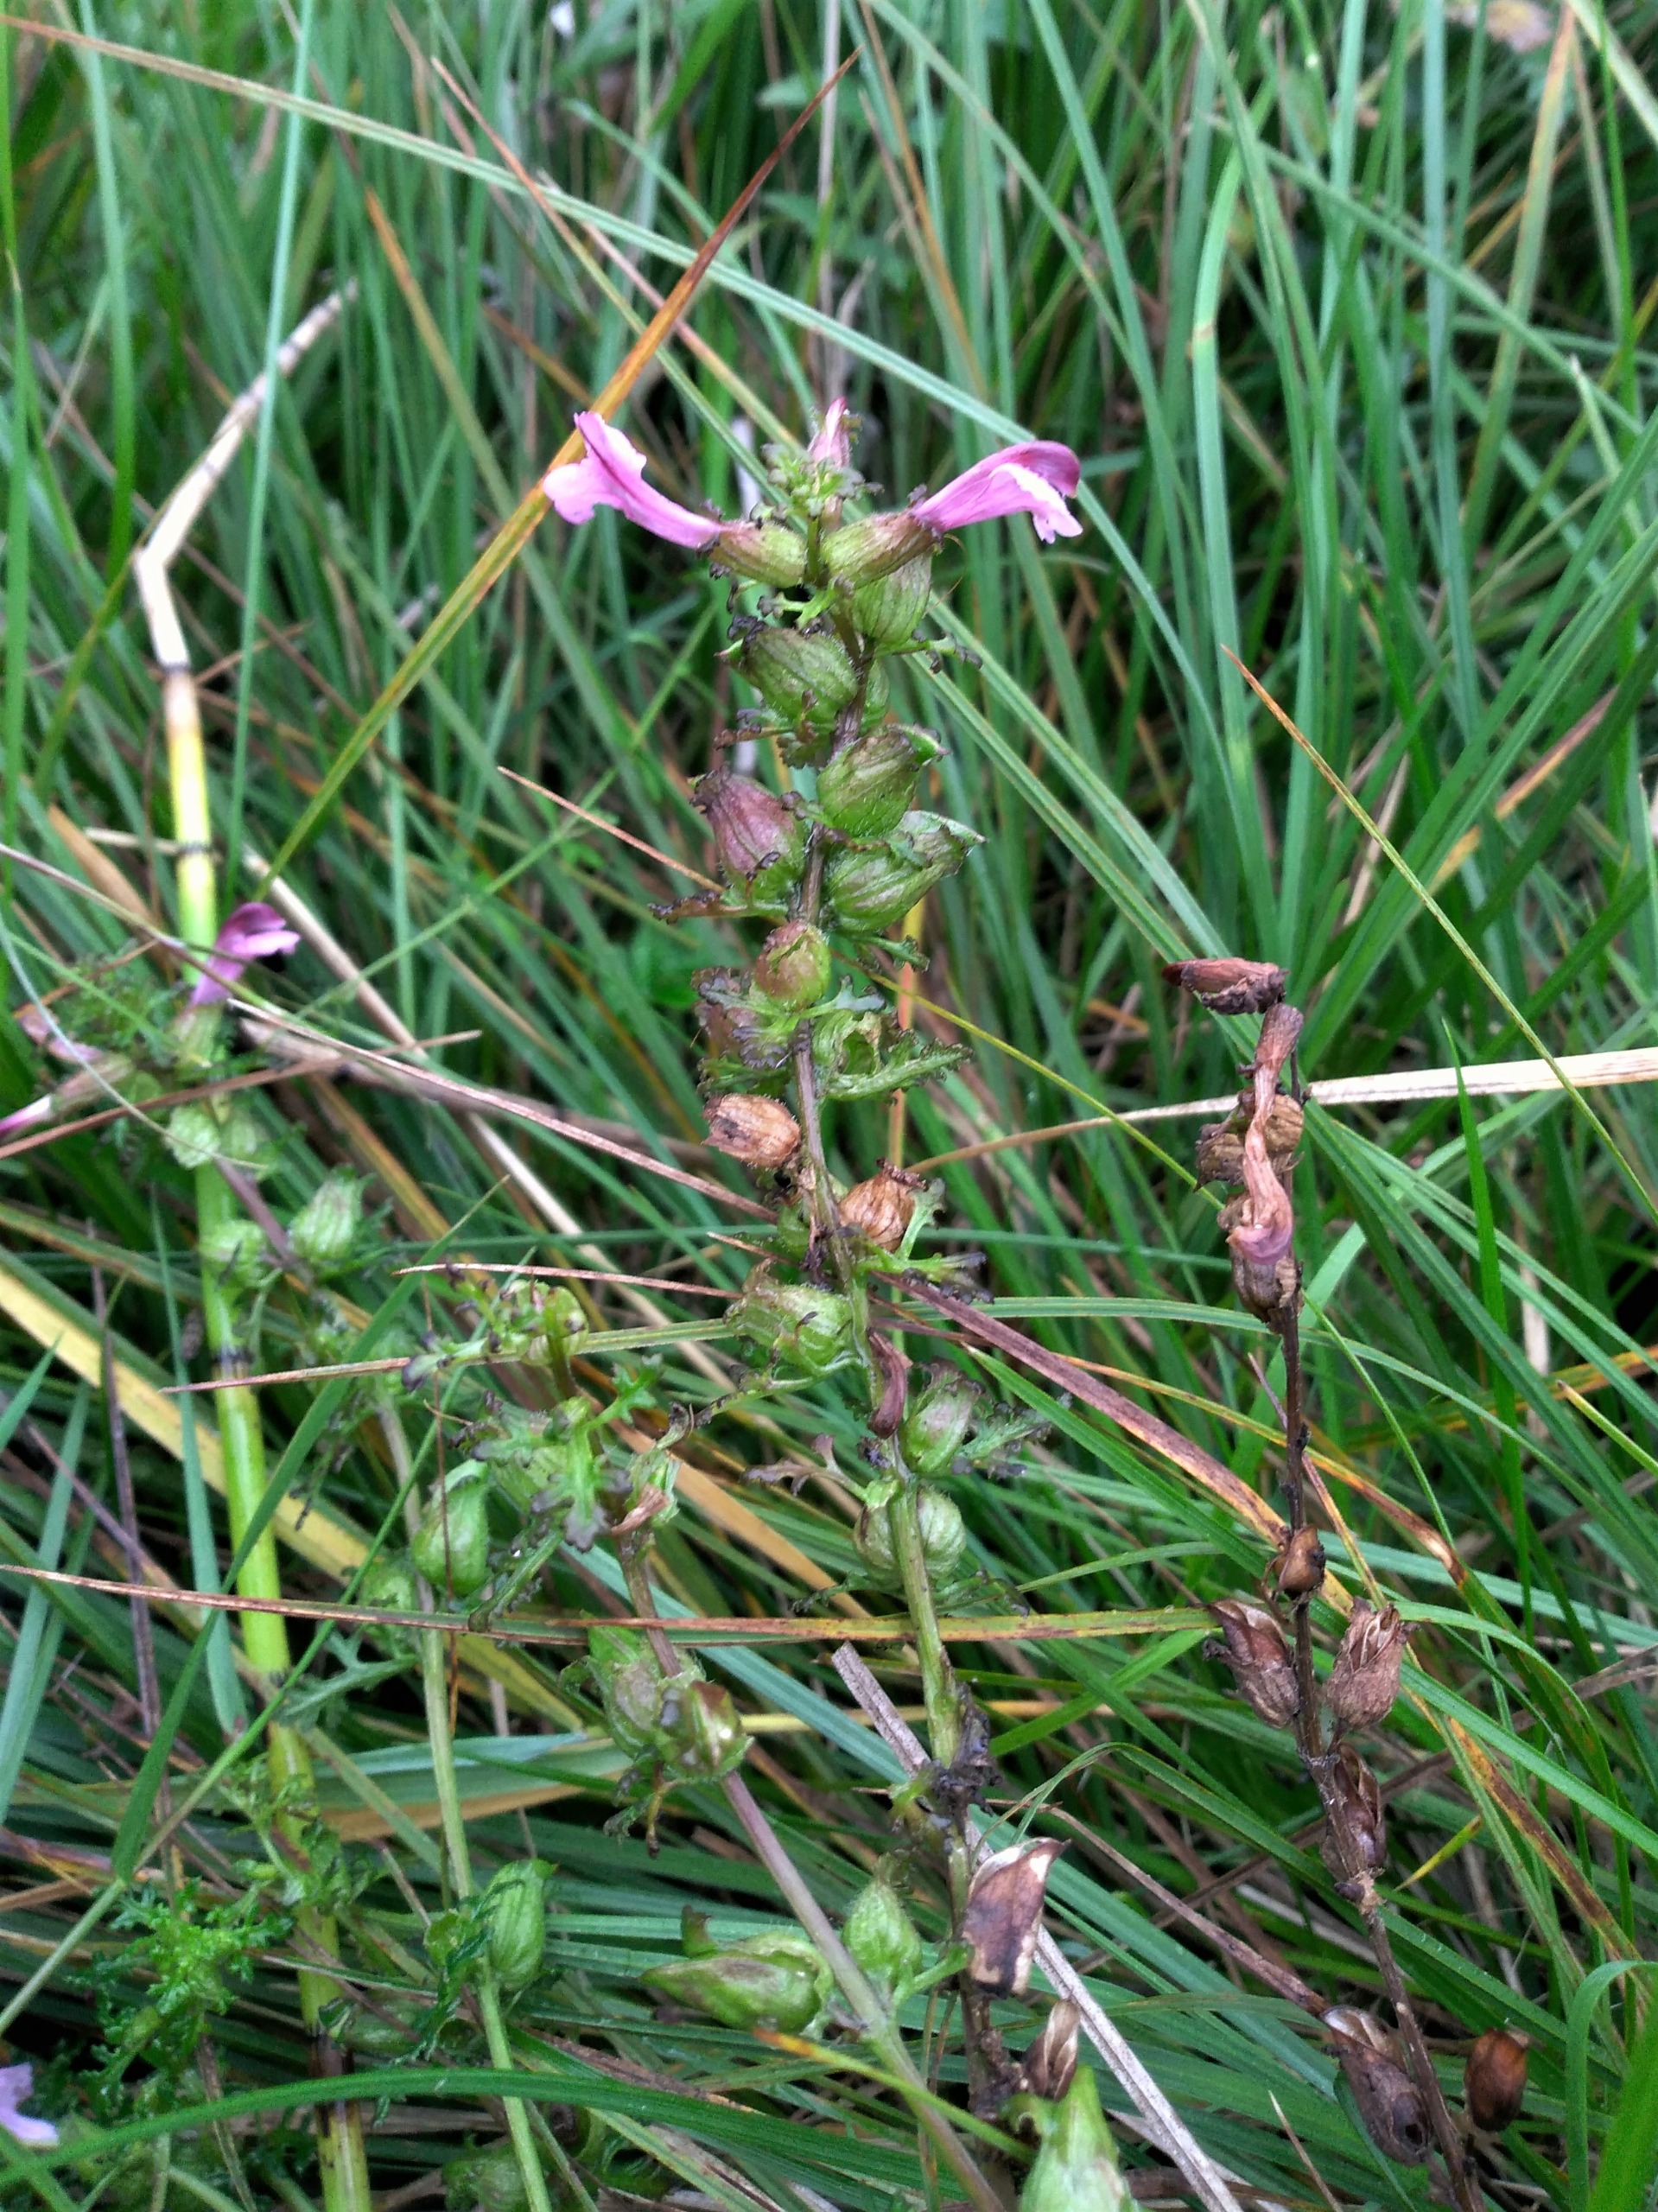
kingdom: Plantae
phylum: Tracheophyta
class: Magnoliopsida
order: Lamiales
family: Orobanchaceae
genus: Pedicularis
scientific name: Pedicularis palustris
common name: Eng-troldurt
